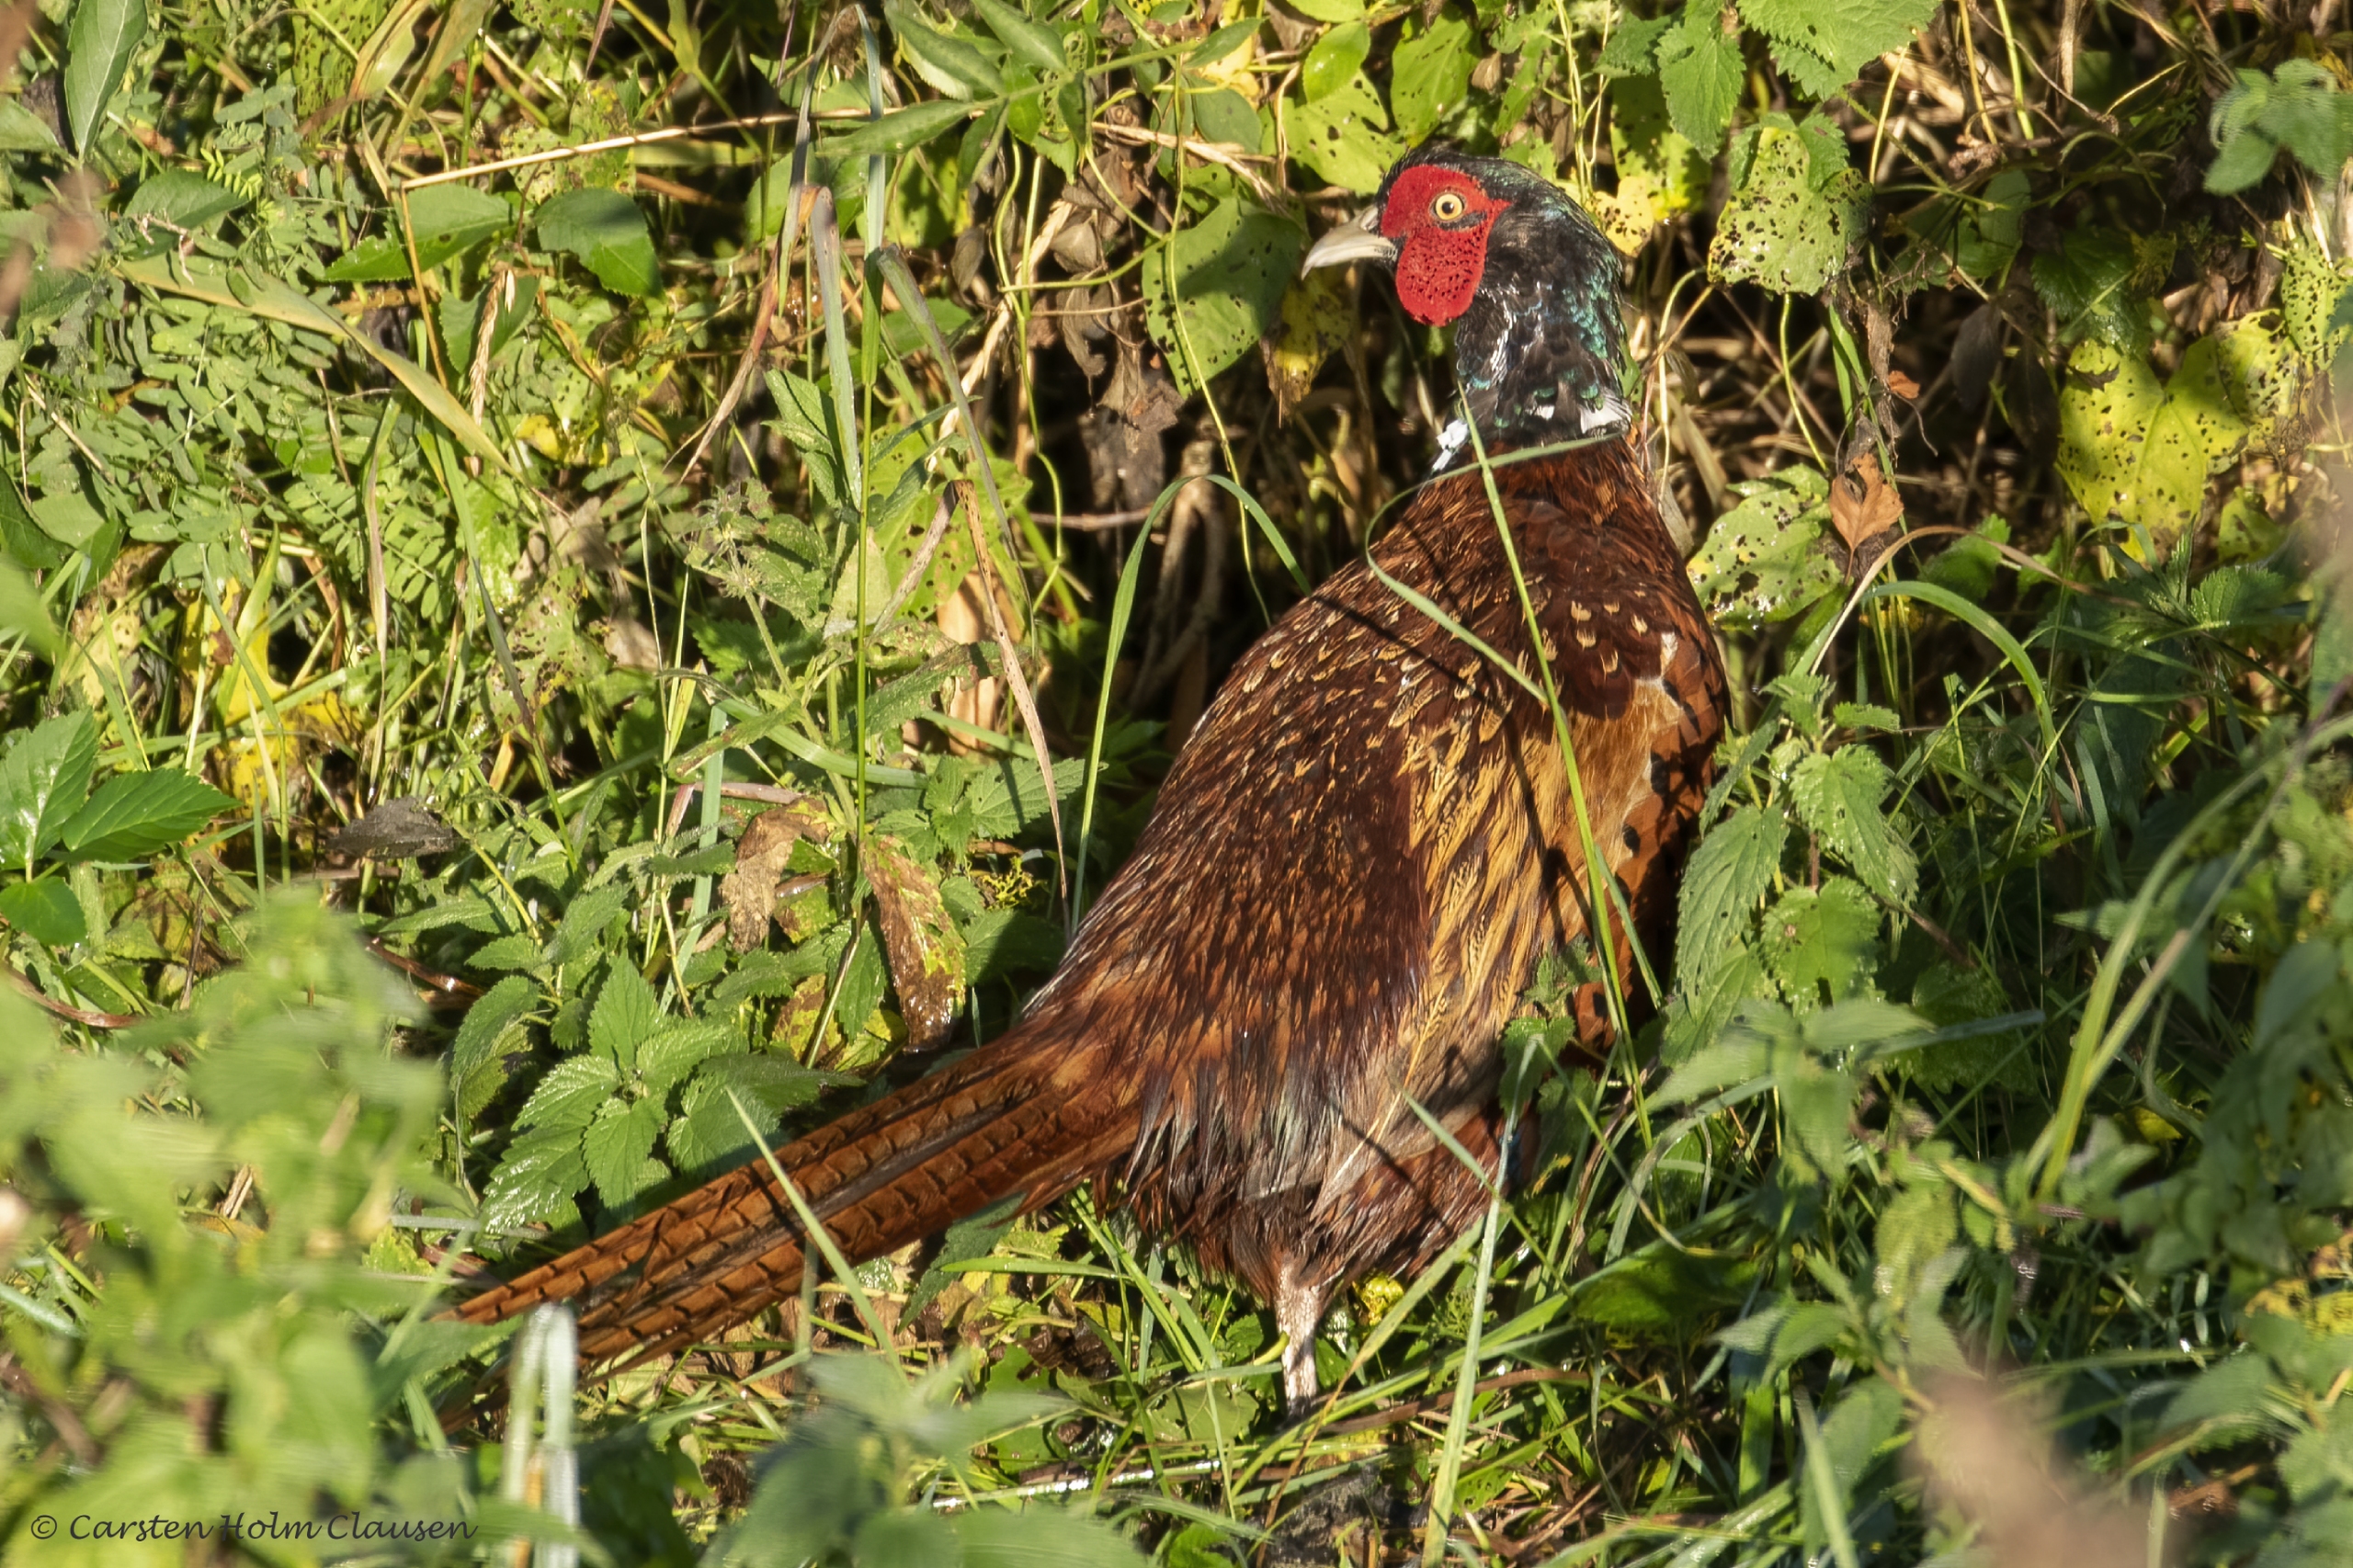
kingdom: Animalia
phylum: Chordata
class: Aves
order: Galliformes
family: Phasianidae
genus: Phasianus
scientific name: Phasianus colchicus
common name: Fasan
